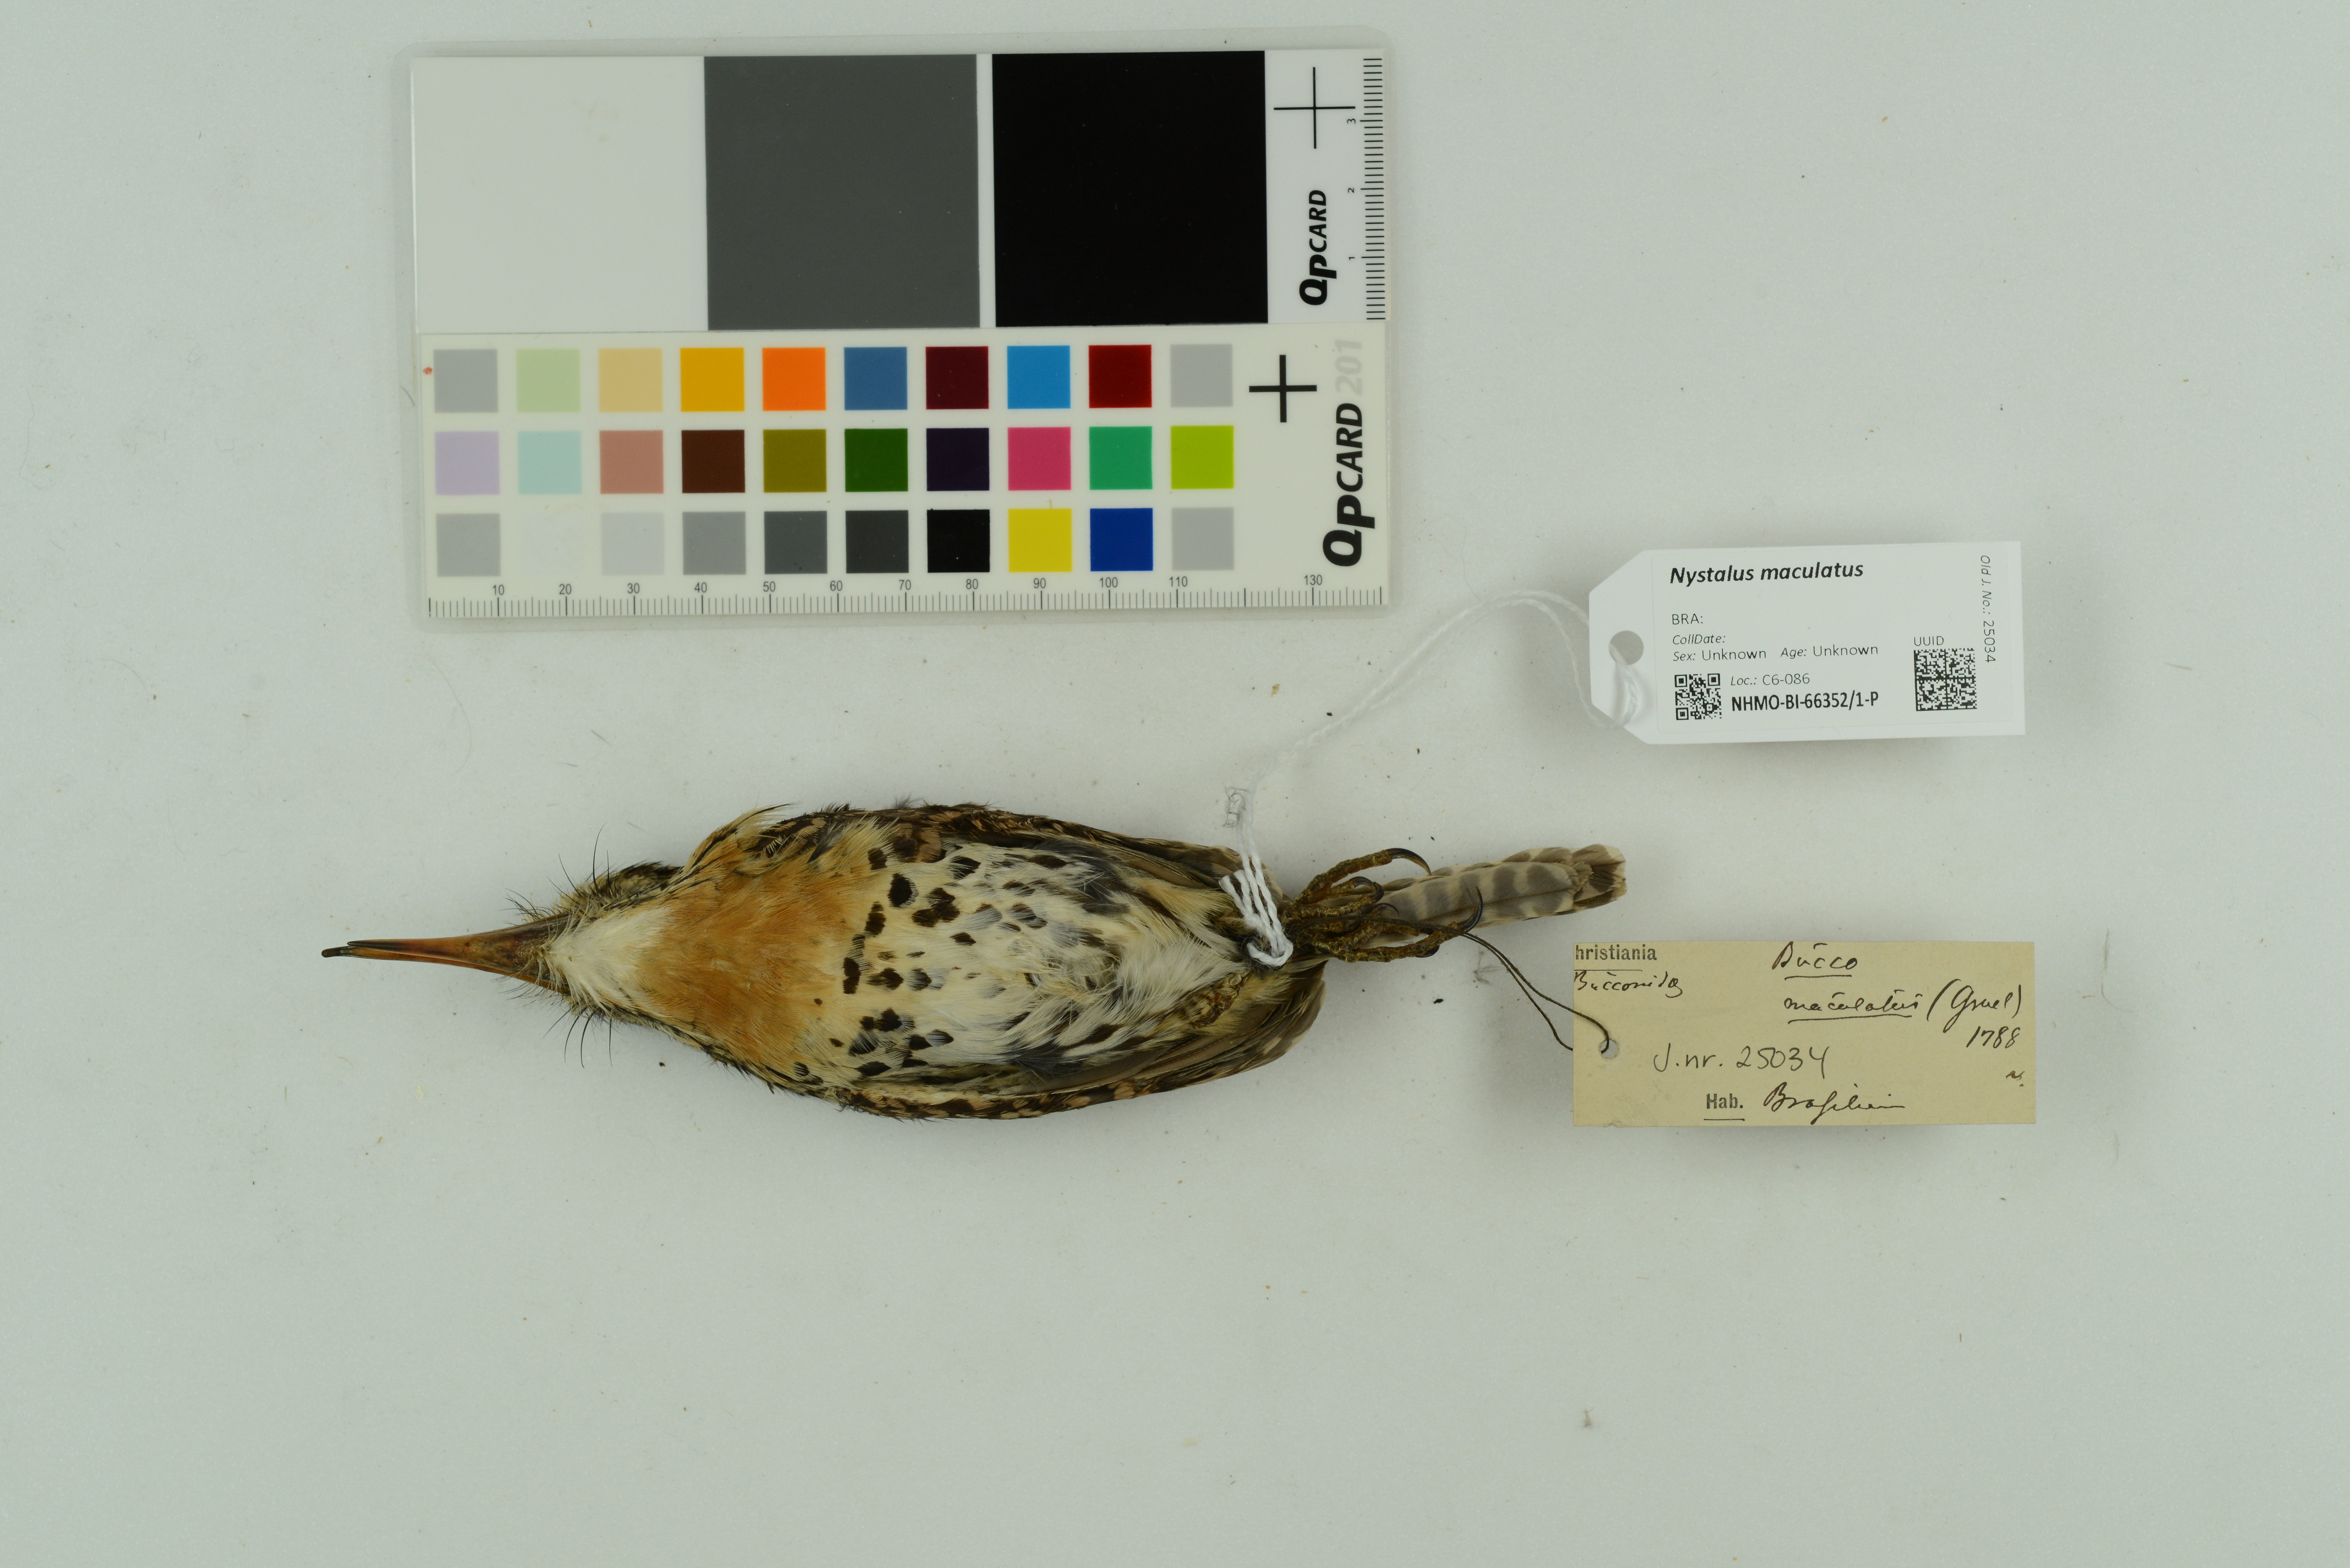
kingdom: Animalia
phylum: Chordata
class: Aves
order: Piciformes
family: Bucconidae
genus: Nystalus
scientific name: Nystalus maculatus
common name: Caatinga puffbird
